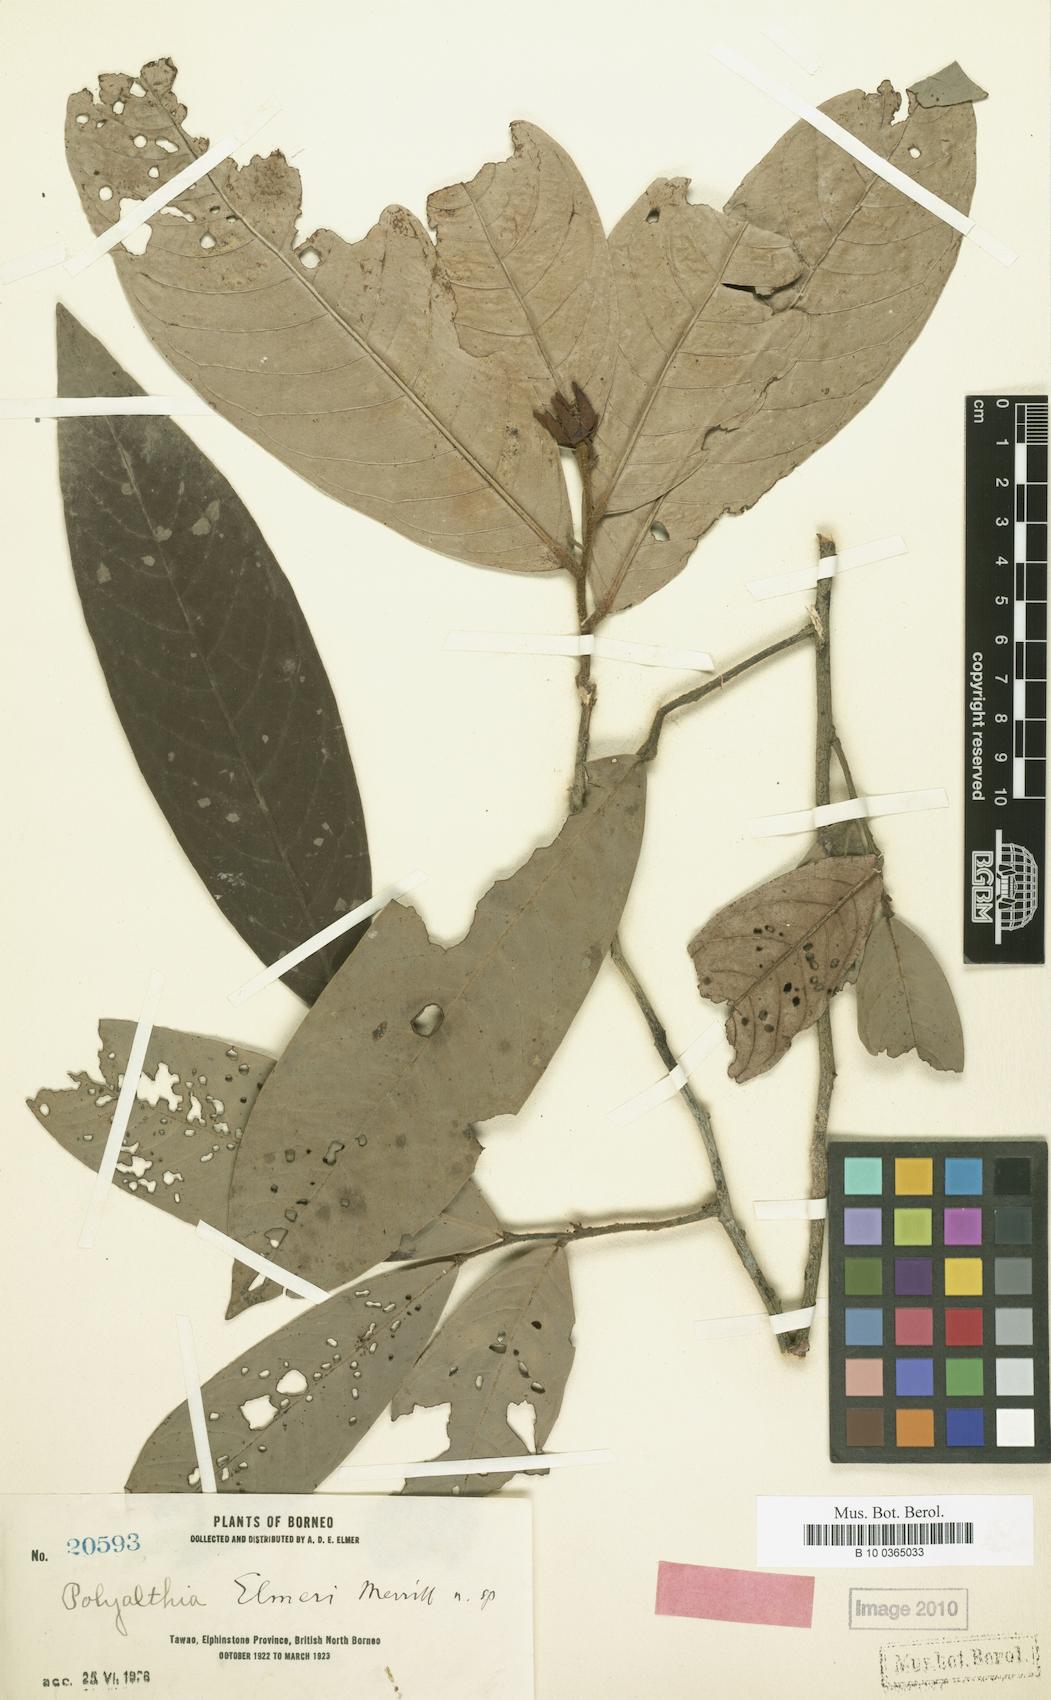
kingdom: Plantae
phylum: Tracheophyta
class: Magnoliopsida
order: Magnoliales
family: Annonaceae
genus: Polyalthia
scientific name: Polyalthia insignis
